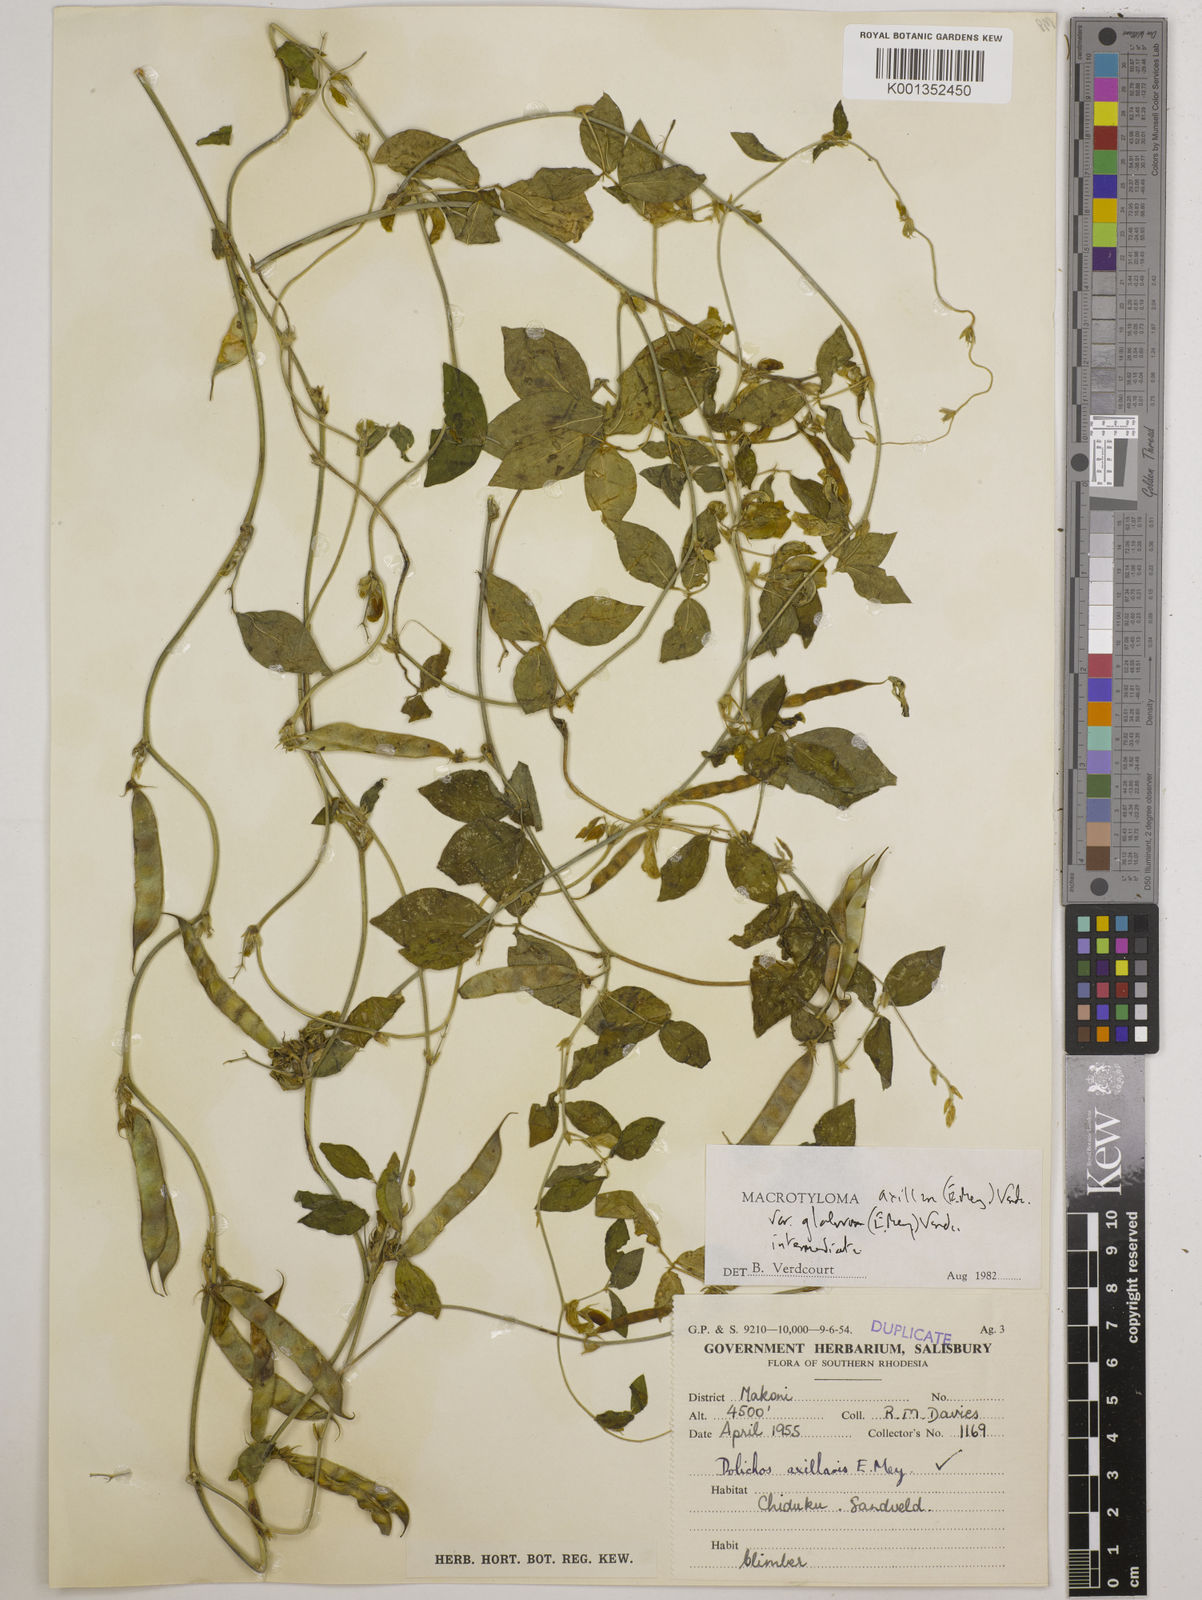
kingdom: Plantae
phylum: Tracheophyta
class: Magnoliopsida
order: Fabales
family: Fabaceae
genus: Macrotyloma
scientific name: Macrotyloma axillare
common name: Perennial horsegram
